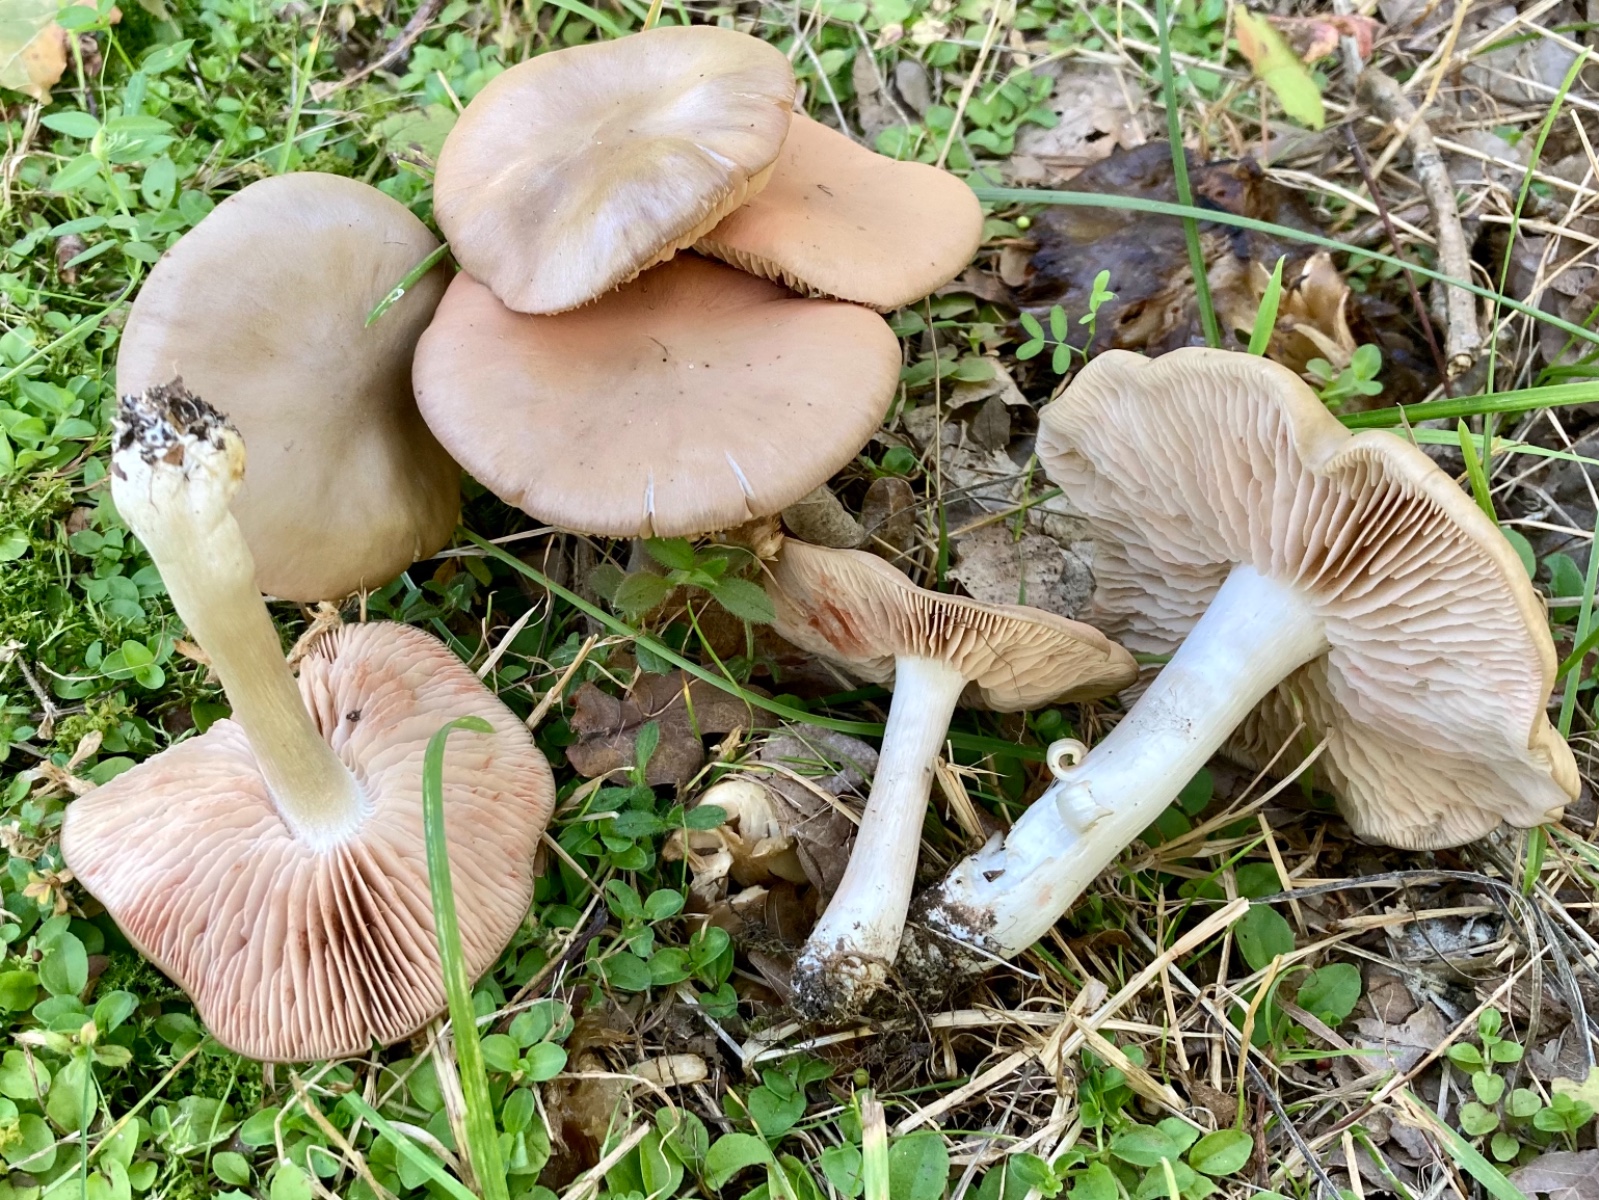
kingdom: Fungi
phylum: Basidiomycota
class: Agaricomycetes
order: Agaricales
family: Entolomataceae
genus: Entoloma
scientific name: Entoloma lividoalbum
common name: lysstokket rødblad
